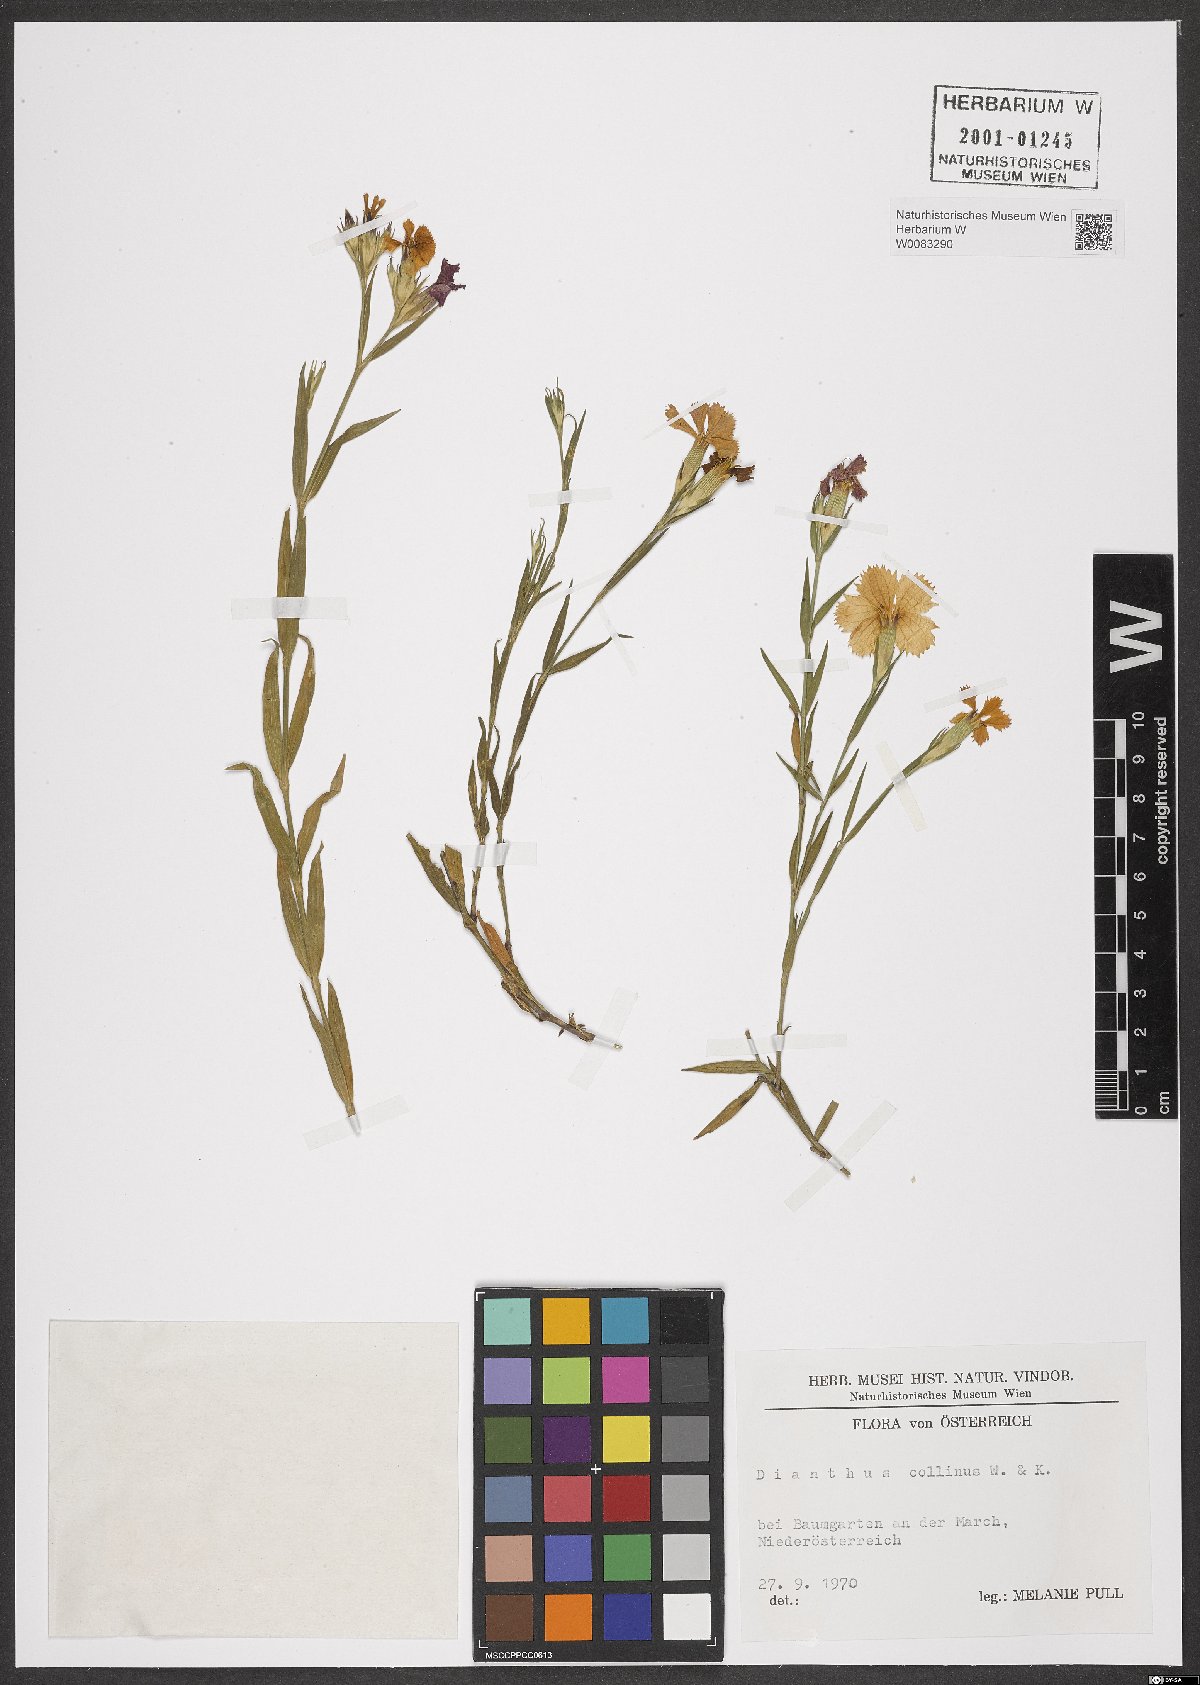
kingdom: Plantae
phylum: Tracheophyta
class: Magnoliopsida
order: Caryophyllales
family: Caryophyllaceae
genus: Dianthus
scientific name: Dianthus collinus
